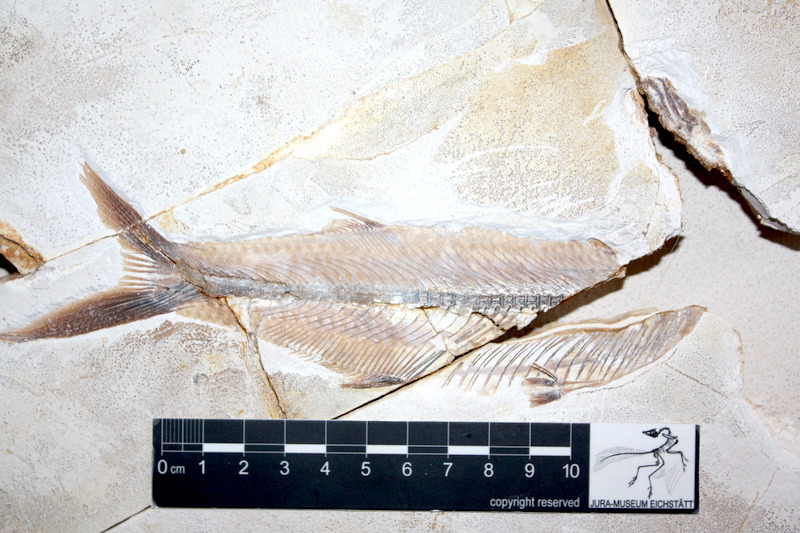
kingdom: Animalia
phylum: Chordata
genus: Thrissops
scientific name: Thrissops formosus
